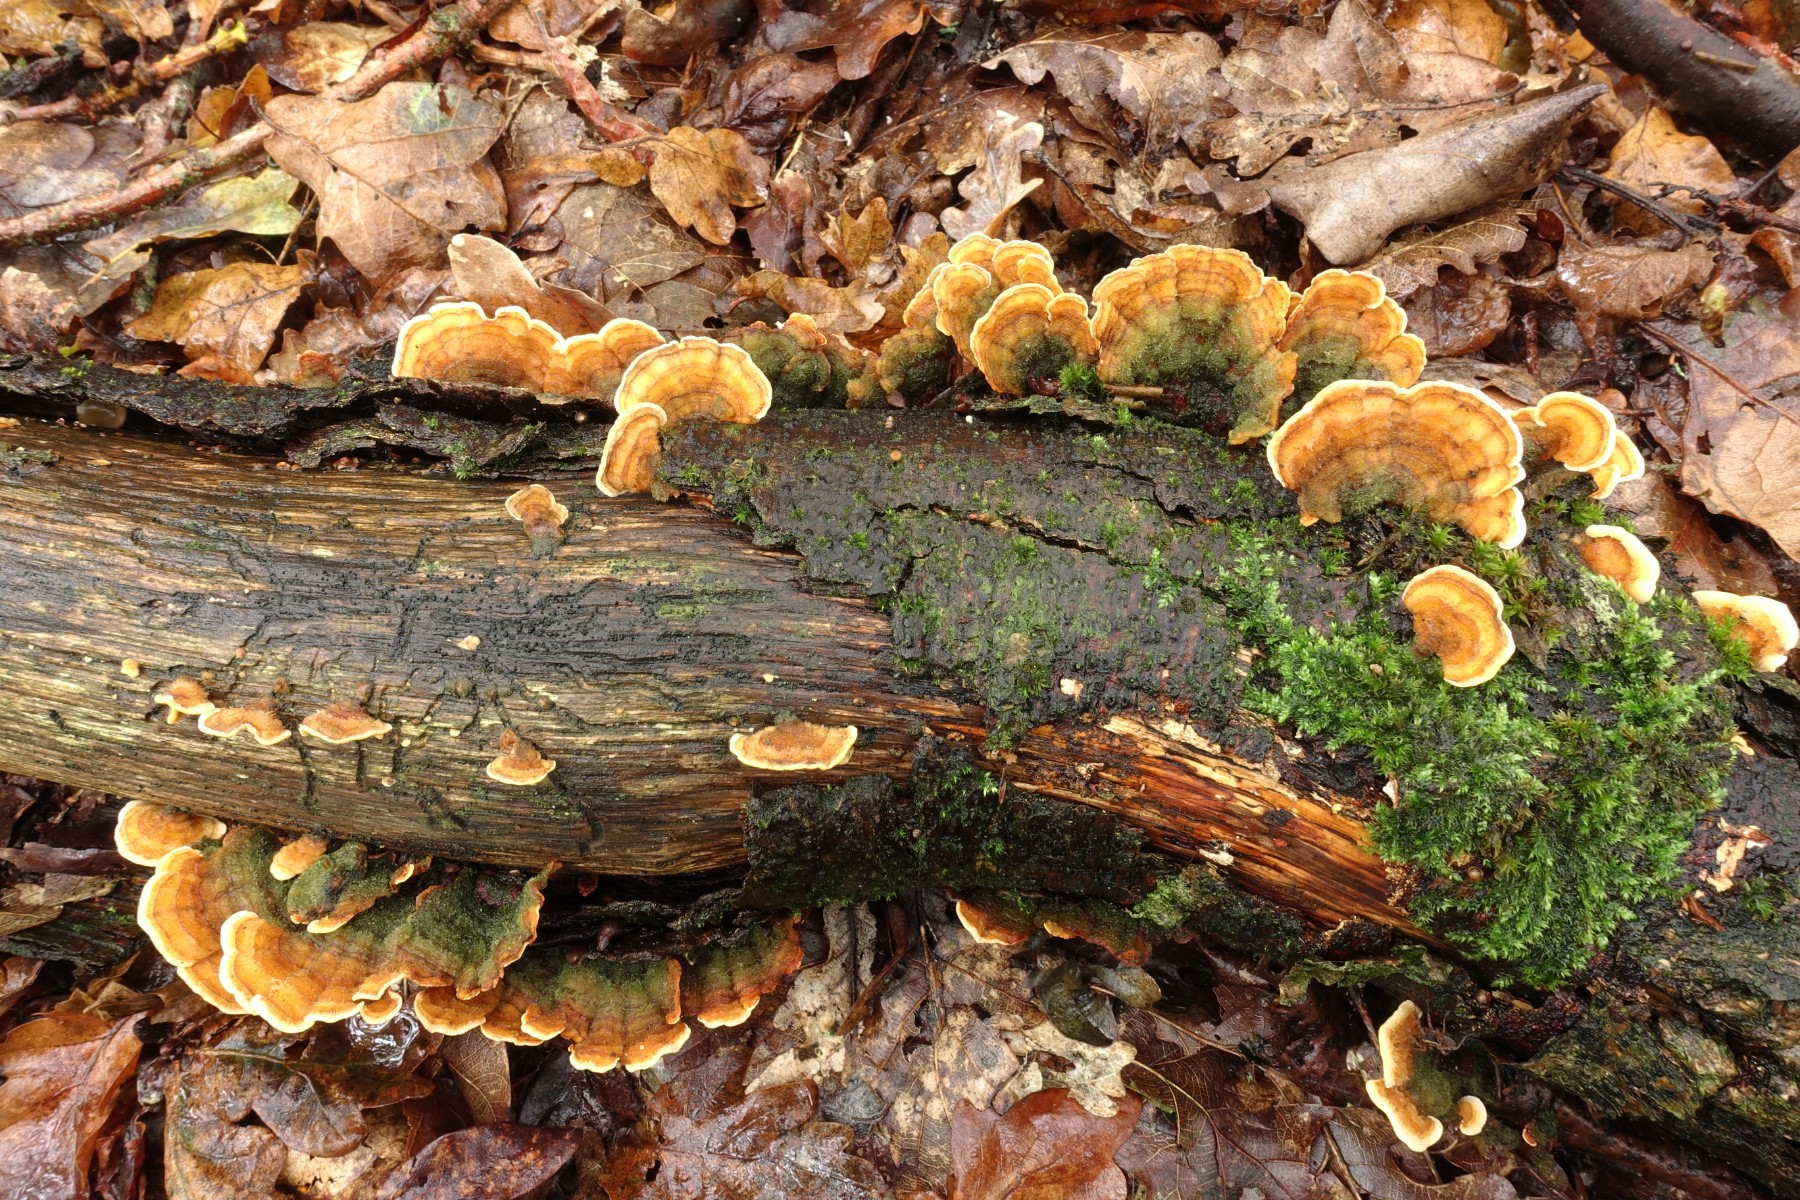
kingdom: Fungi
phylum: Basidiomycota
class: Agaricomycetes
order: Russulales
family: Stereaceae
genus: Stereum
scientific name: Stereum subtomentosum
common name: smuk lædersvamp
